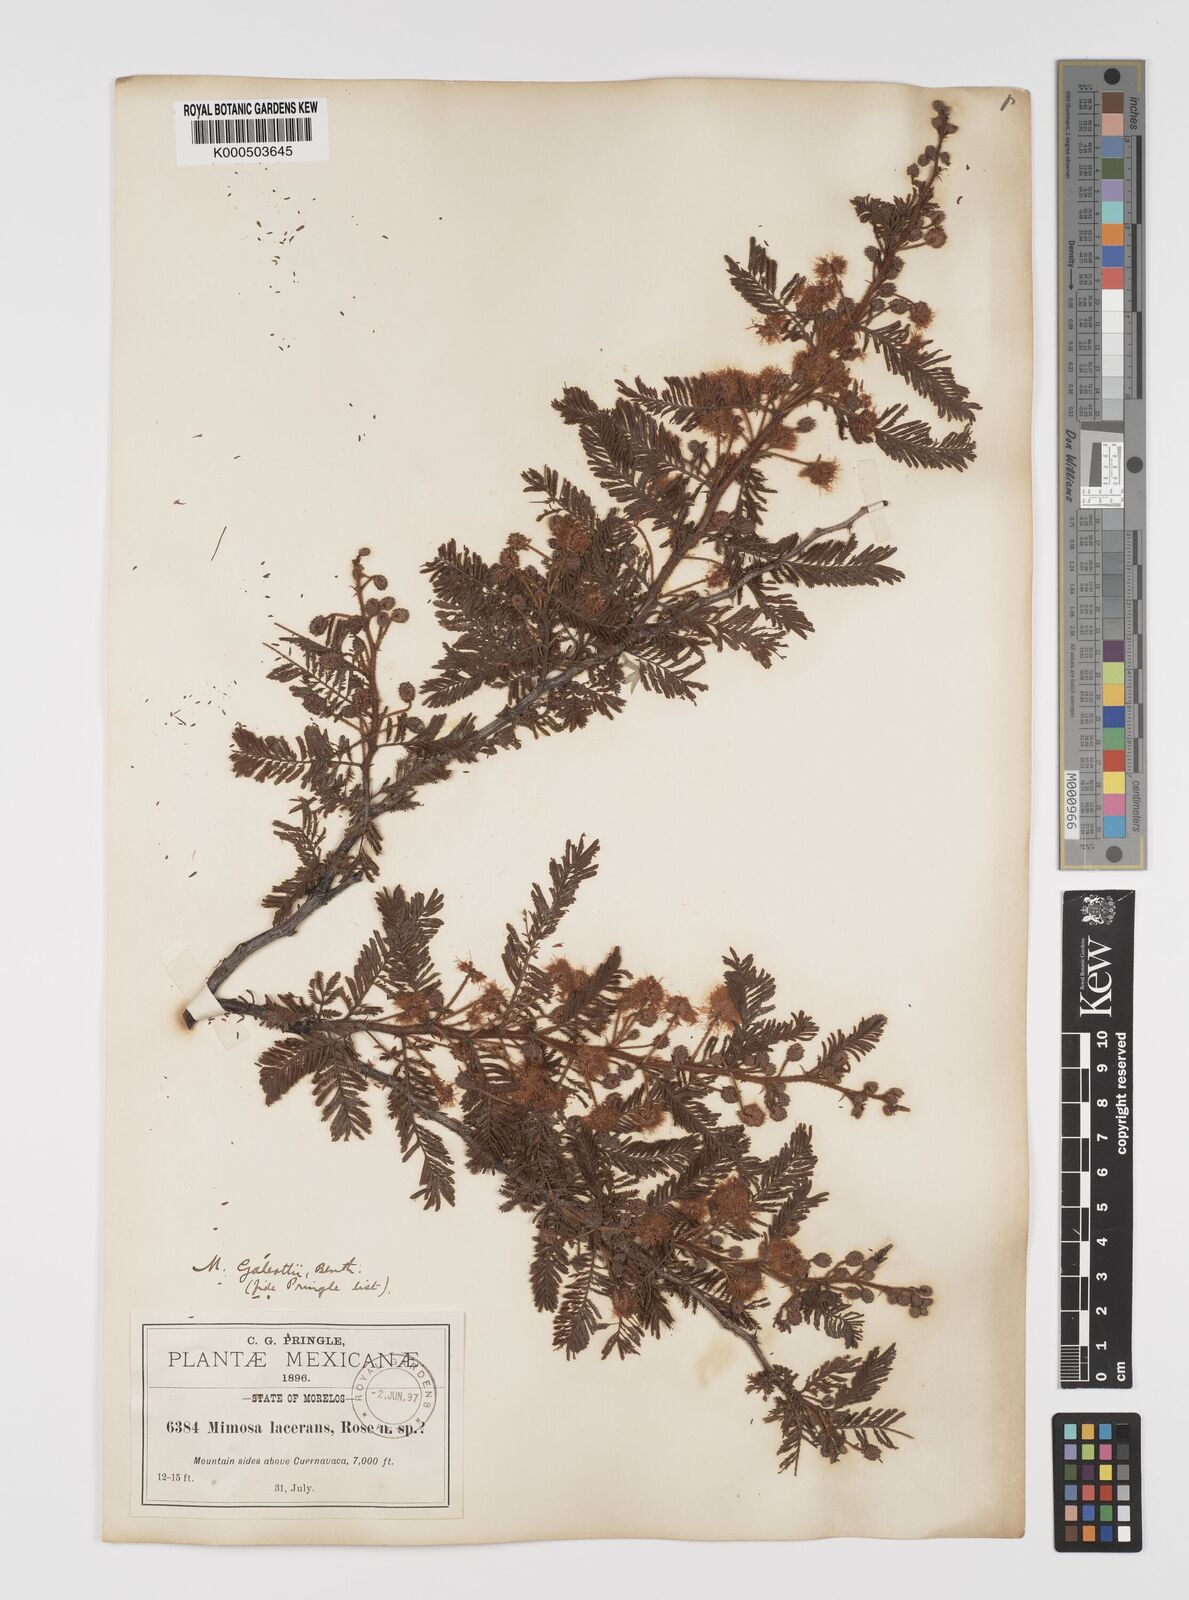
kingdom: Plantae
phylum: Tracheophyta
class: Magnoliopsida
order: Fabales
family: Fabaceae
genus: Mimosa
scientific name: Mimosa galeottii
